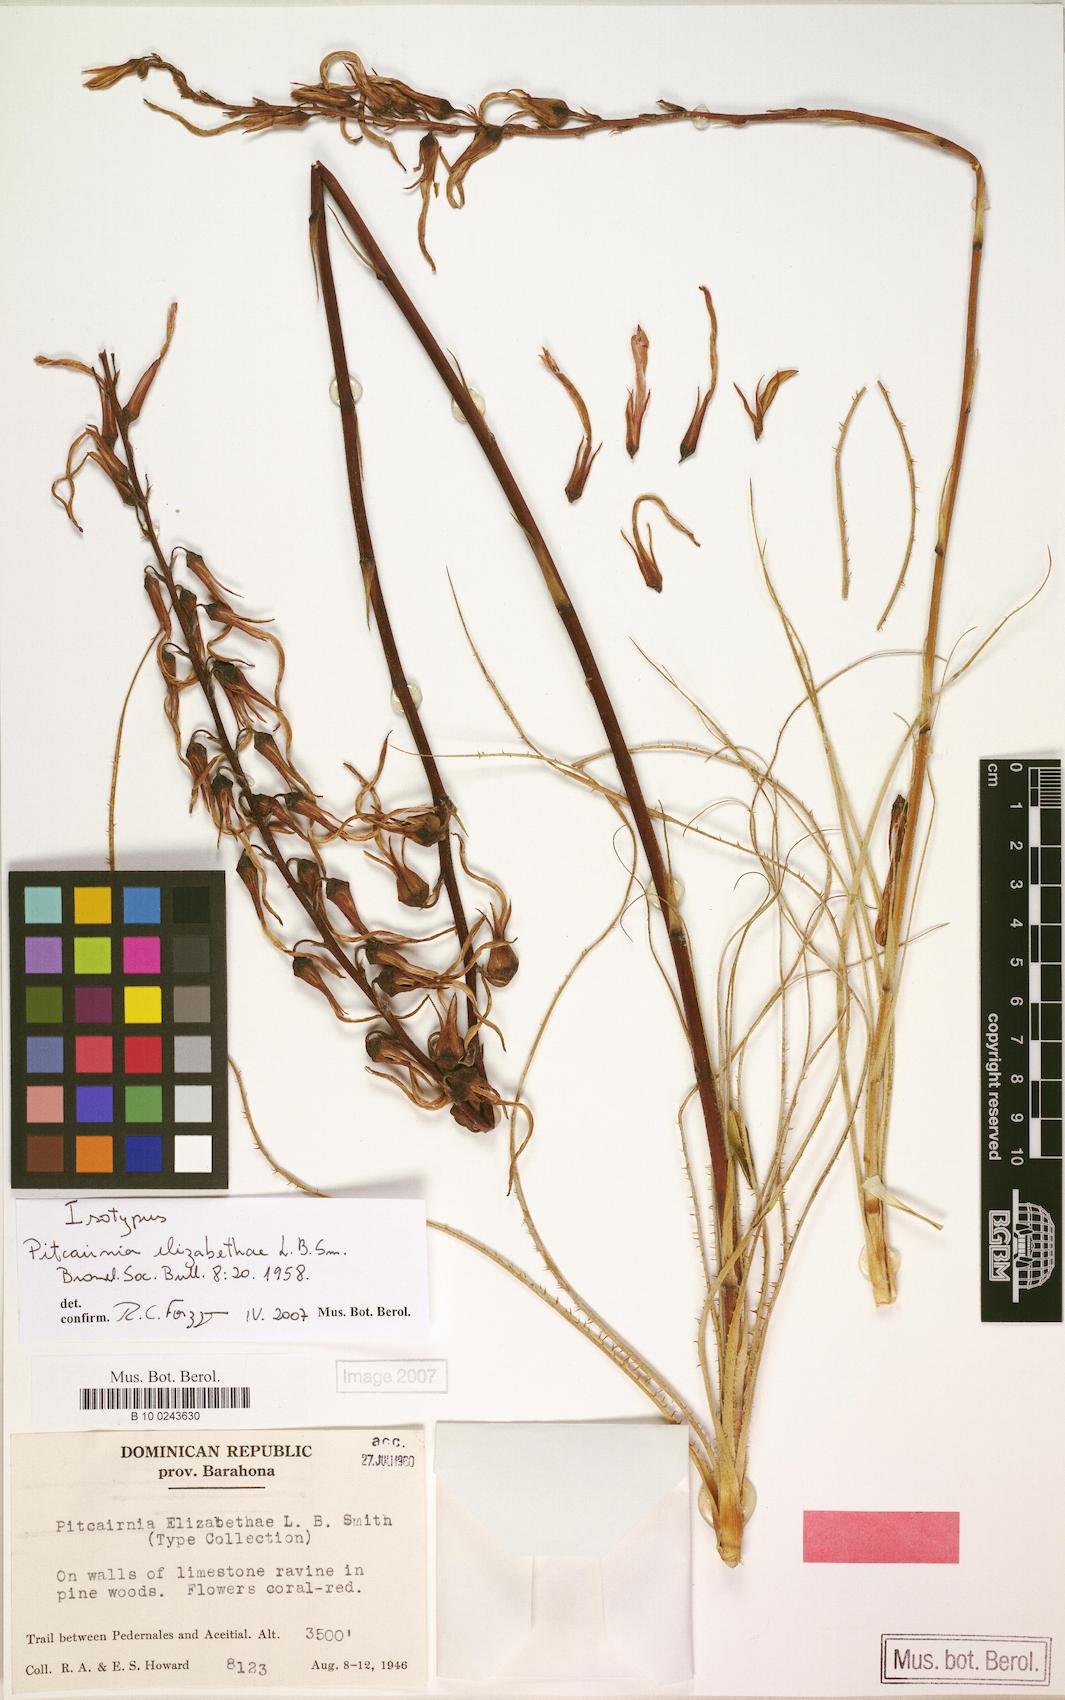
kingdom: Plantae
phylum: Tracheophyta
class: Liliopsida
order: Poales
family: Bromeliaceae
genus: Pitcairnia
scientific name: Pitcairnia elizabethae
